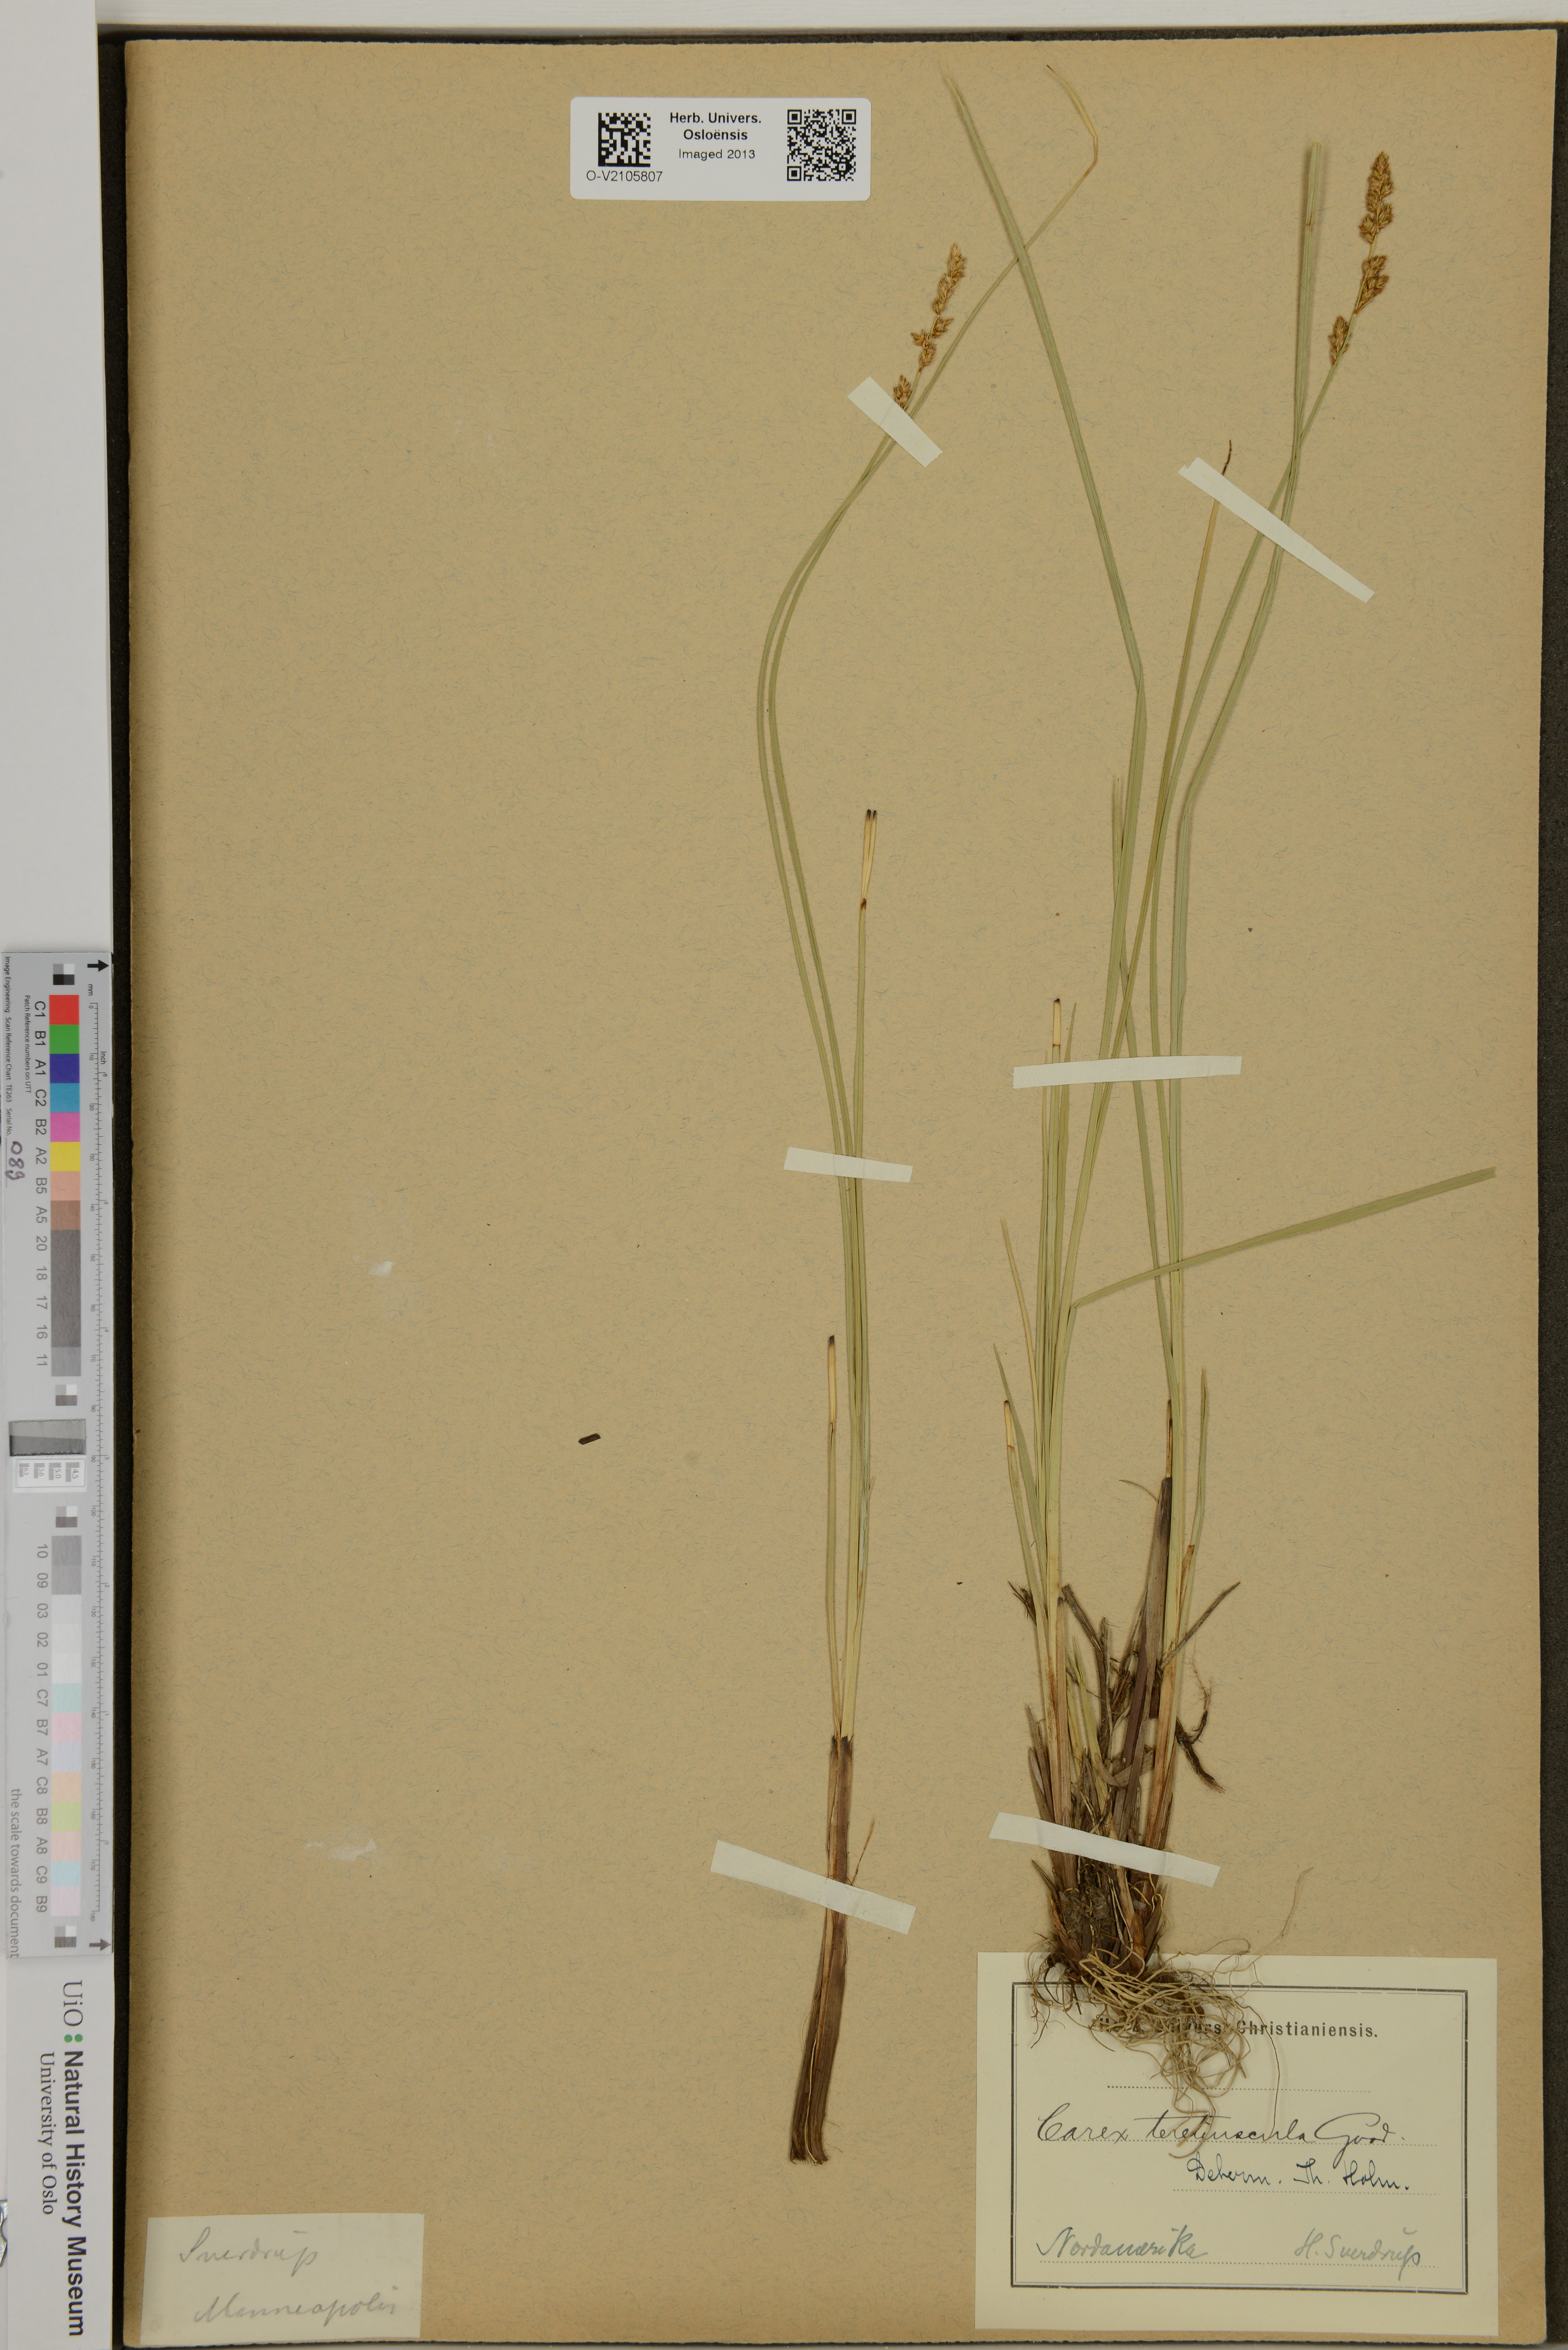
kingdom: Plantae
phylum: Tracheophyta
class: Liliopsida
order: Poales
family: Cyperaceae
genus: Carex
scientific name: Carex diandra
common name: Lesser tussock-sedge
